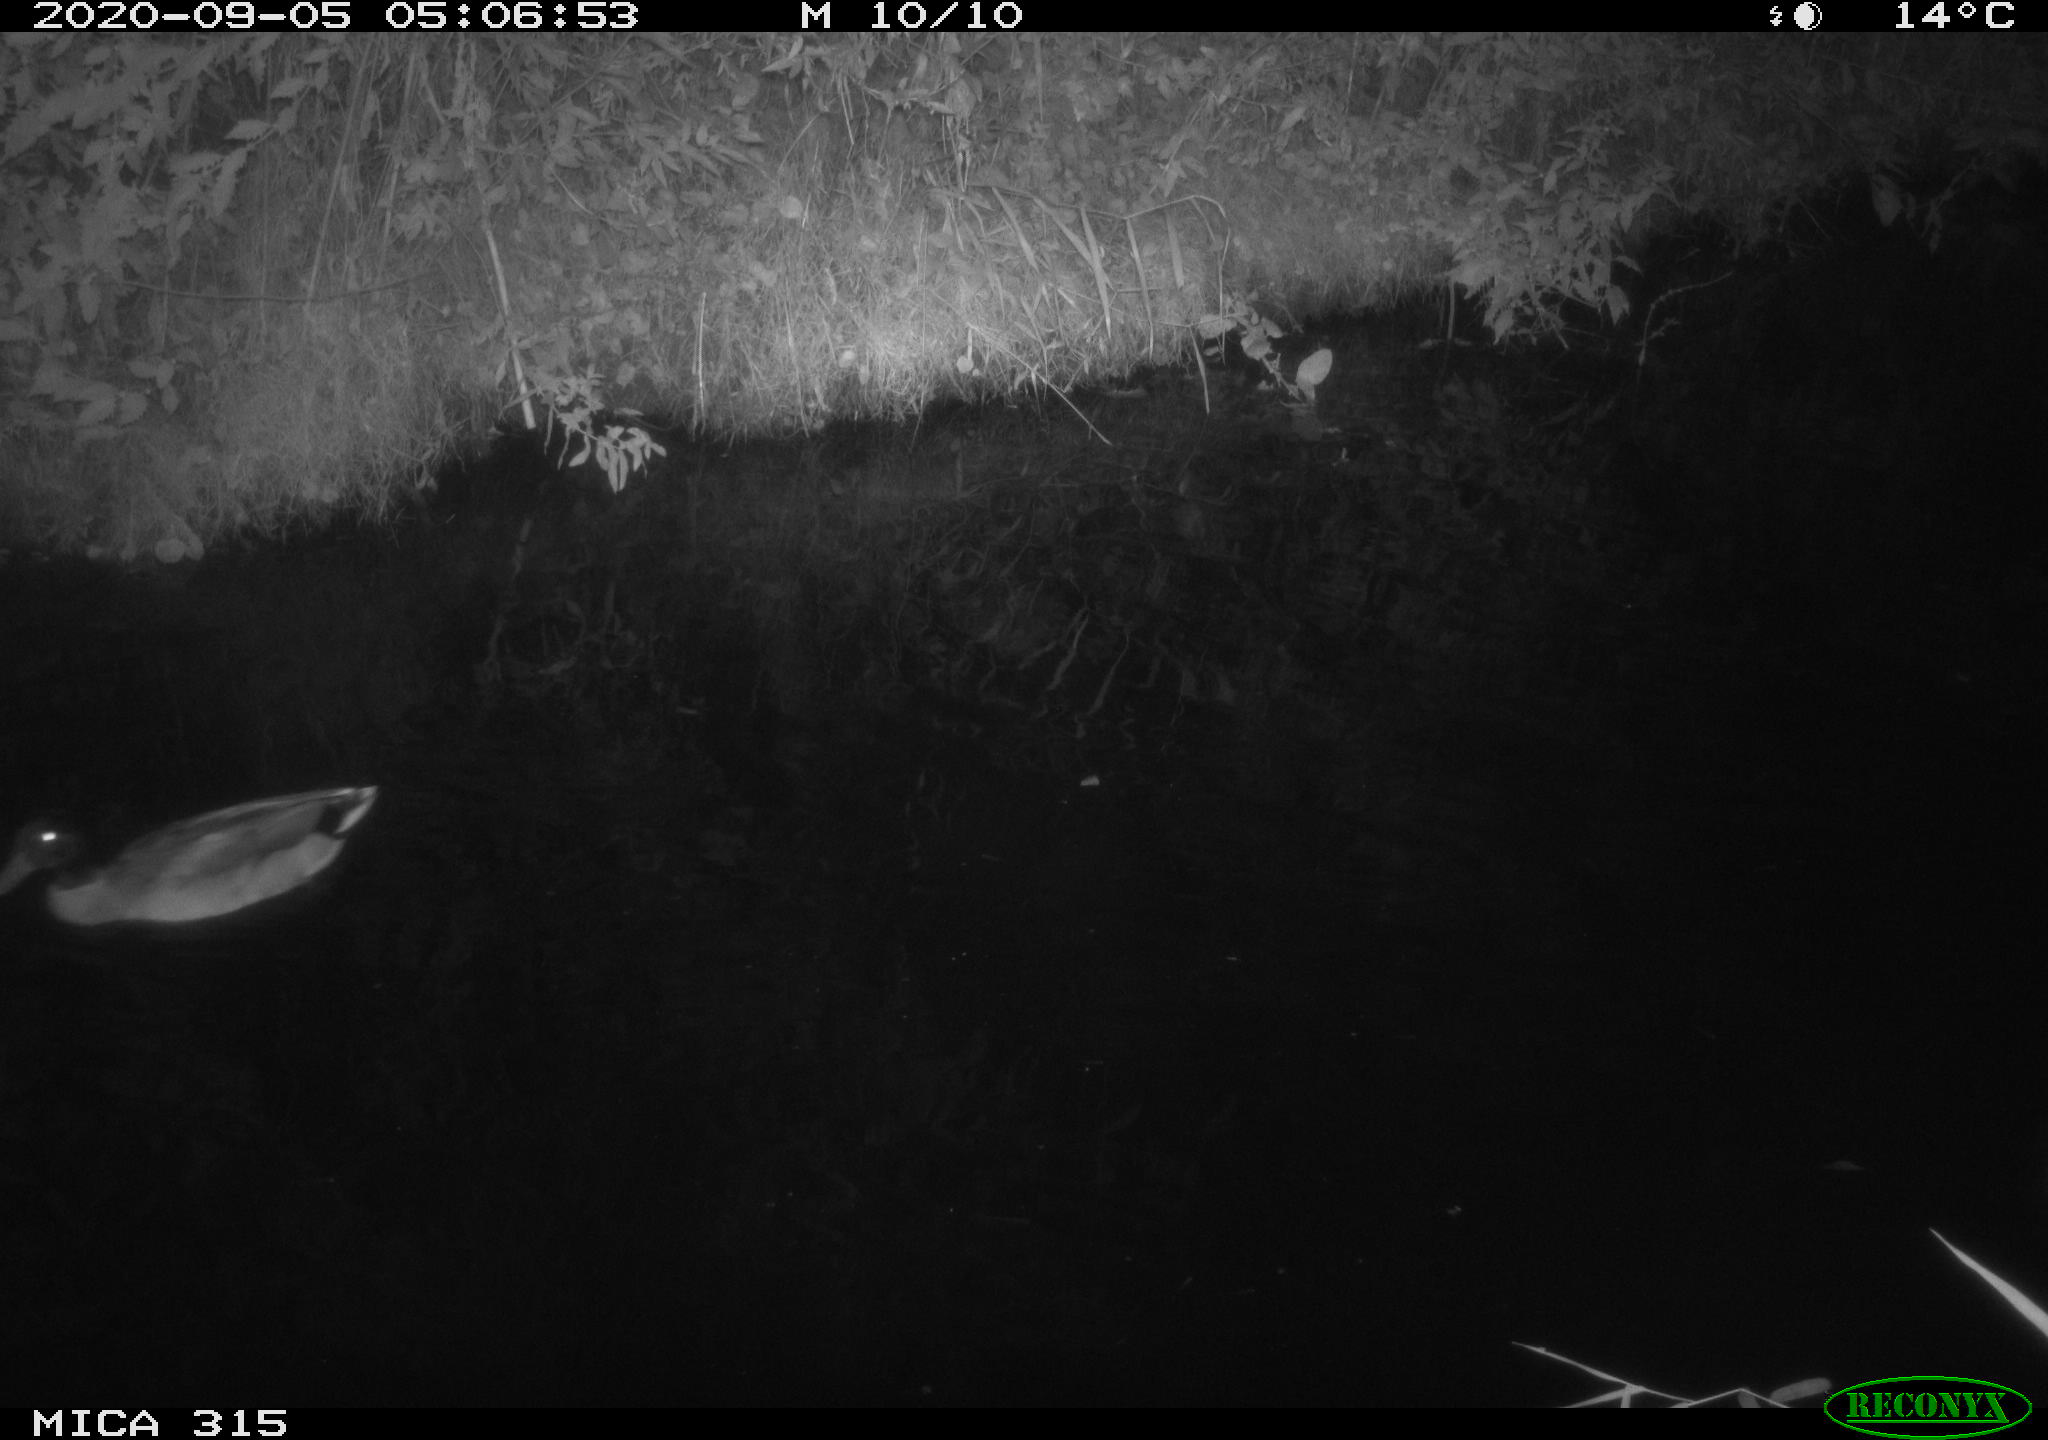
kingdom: Animalia
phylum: Chordata
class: Aves
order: Anseriformes
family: Anatidae
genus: Anas
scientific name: Anas platyrhynchos
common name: Mallard
